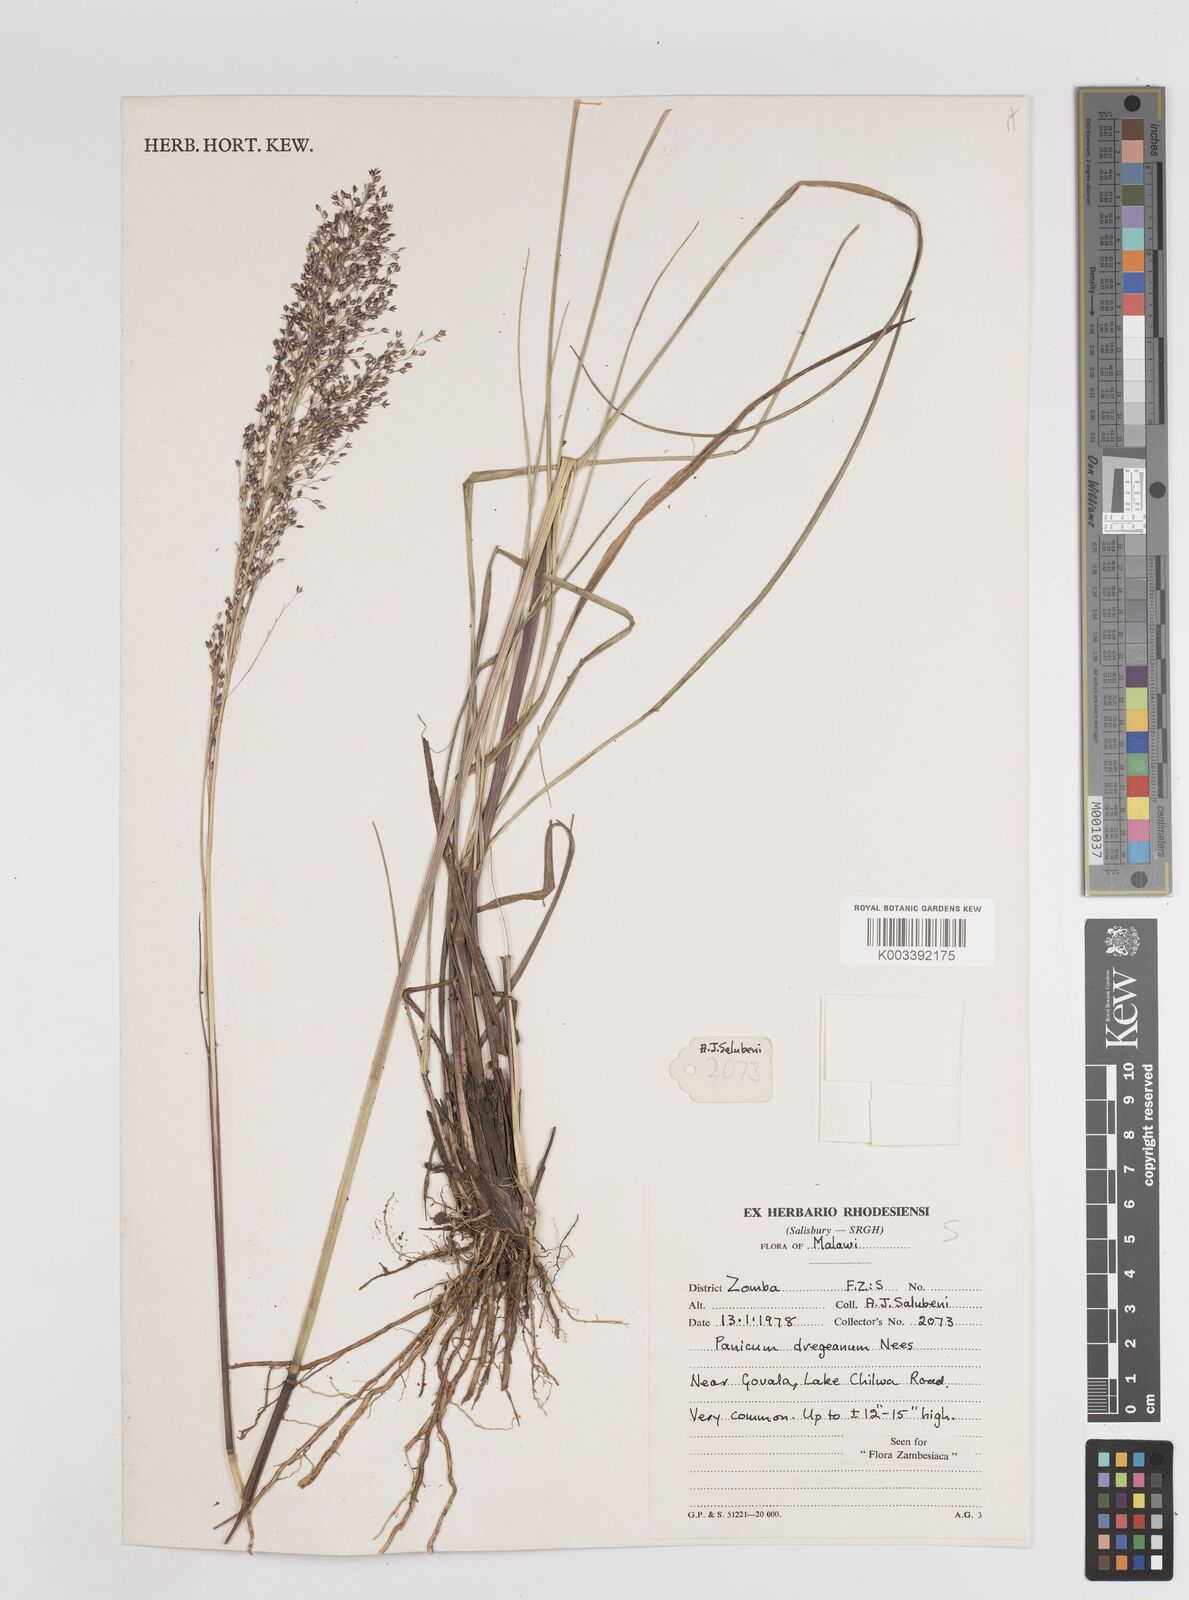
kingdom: Plantae
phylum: Tracheophyta
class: Liliopsida
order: Poales
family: Poaceae
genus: Panicum
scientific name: Panicum dregeanum
